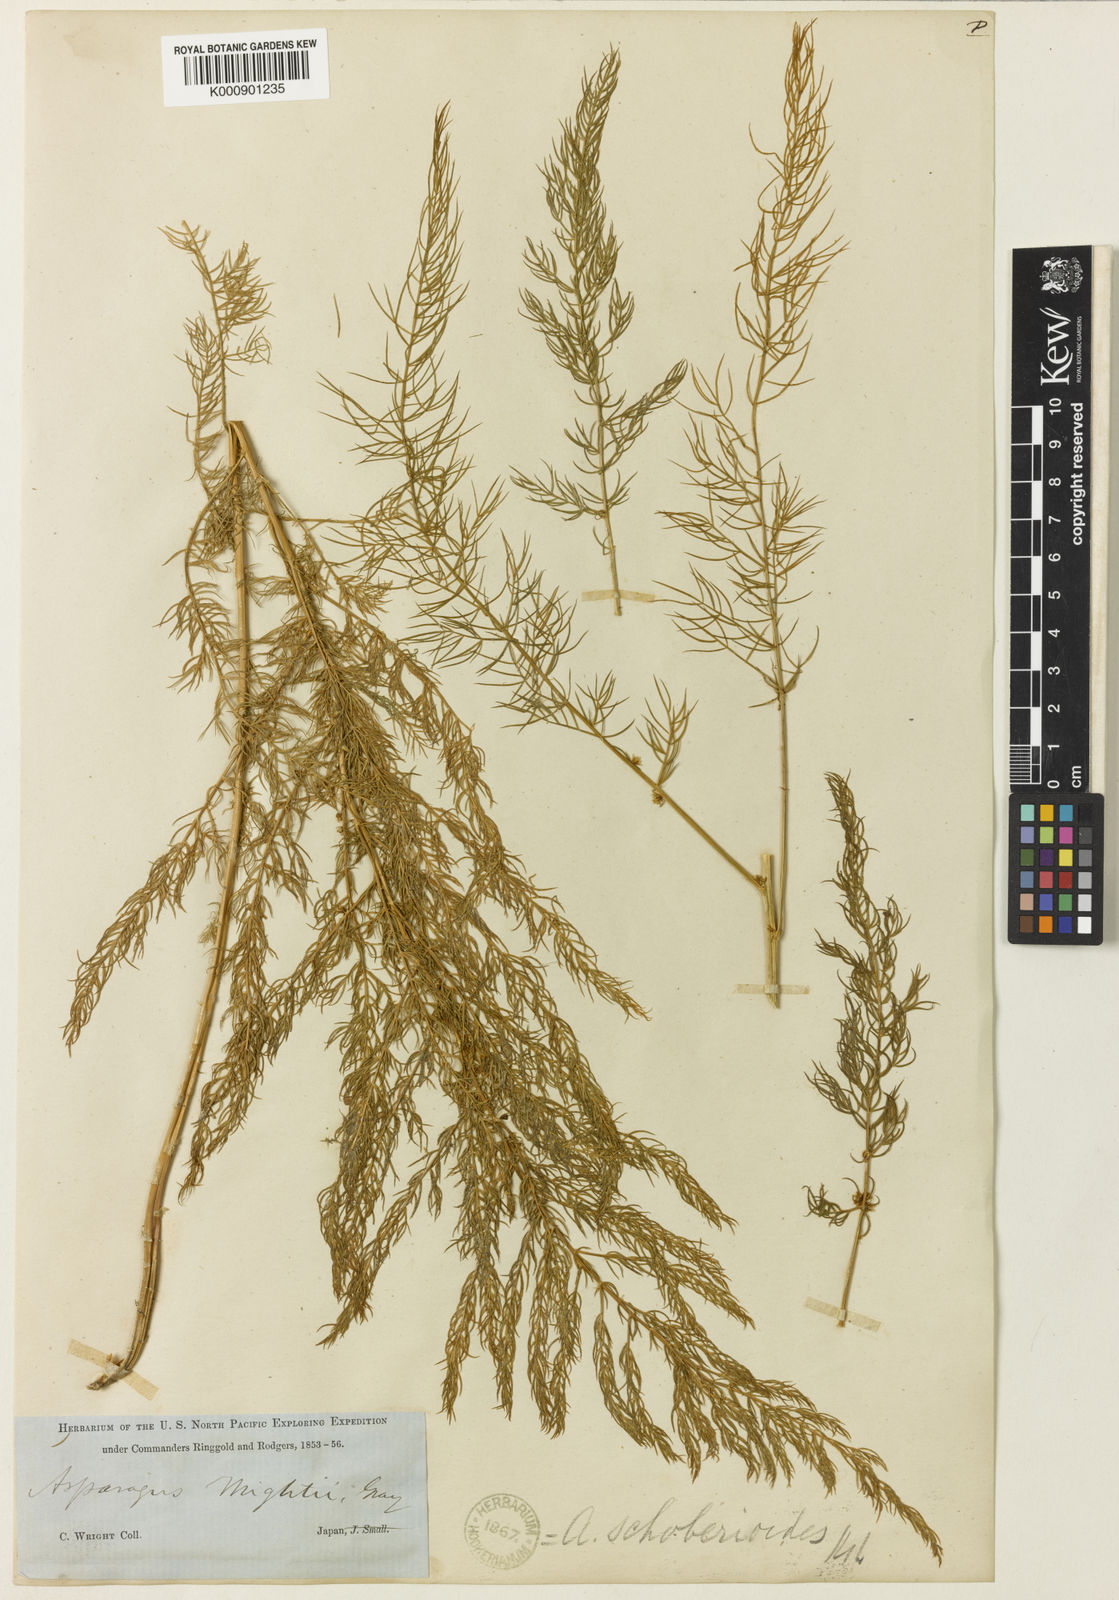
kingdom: Plantae
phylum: Tracheophyta
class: Liliopsida
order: Asparagales
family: Asparagaceae
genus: Asparagus
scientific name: Asparagus schoberioides
